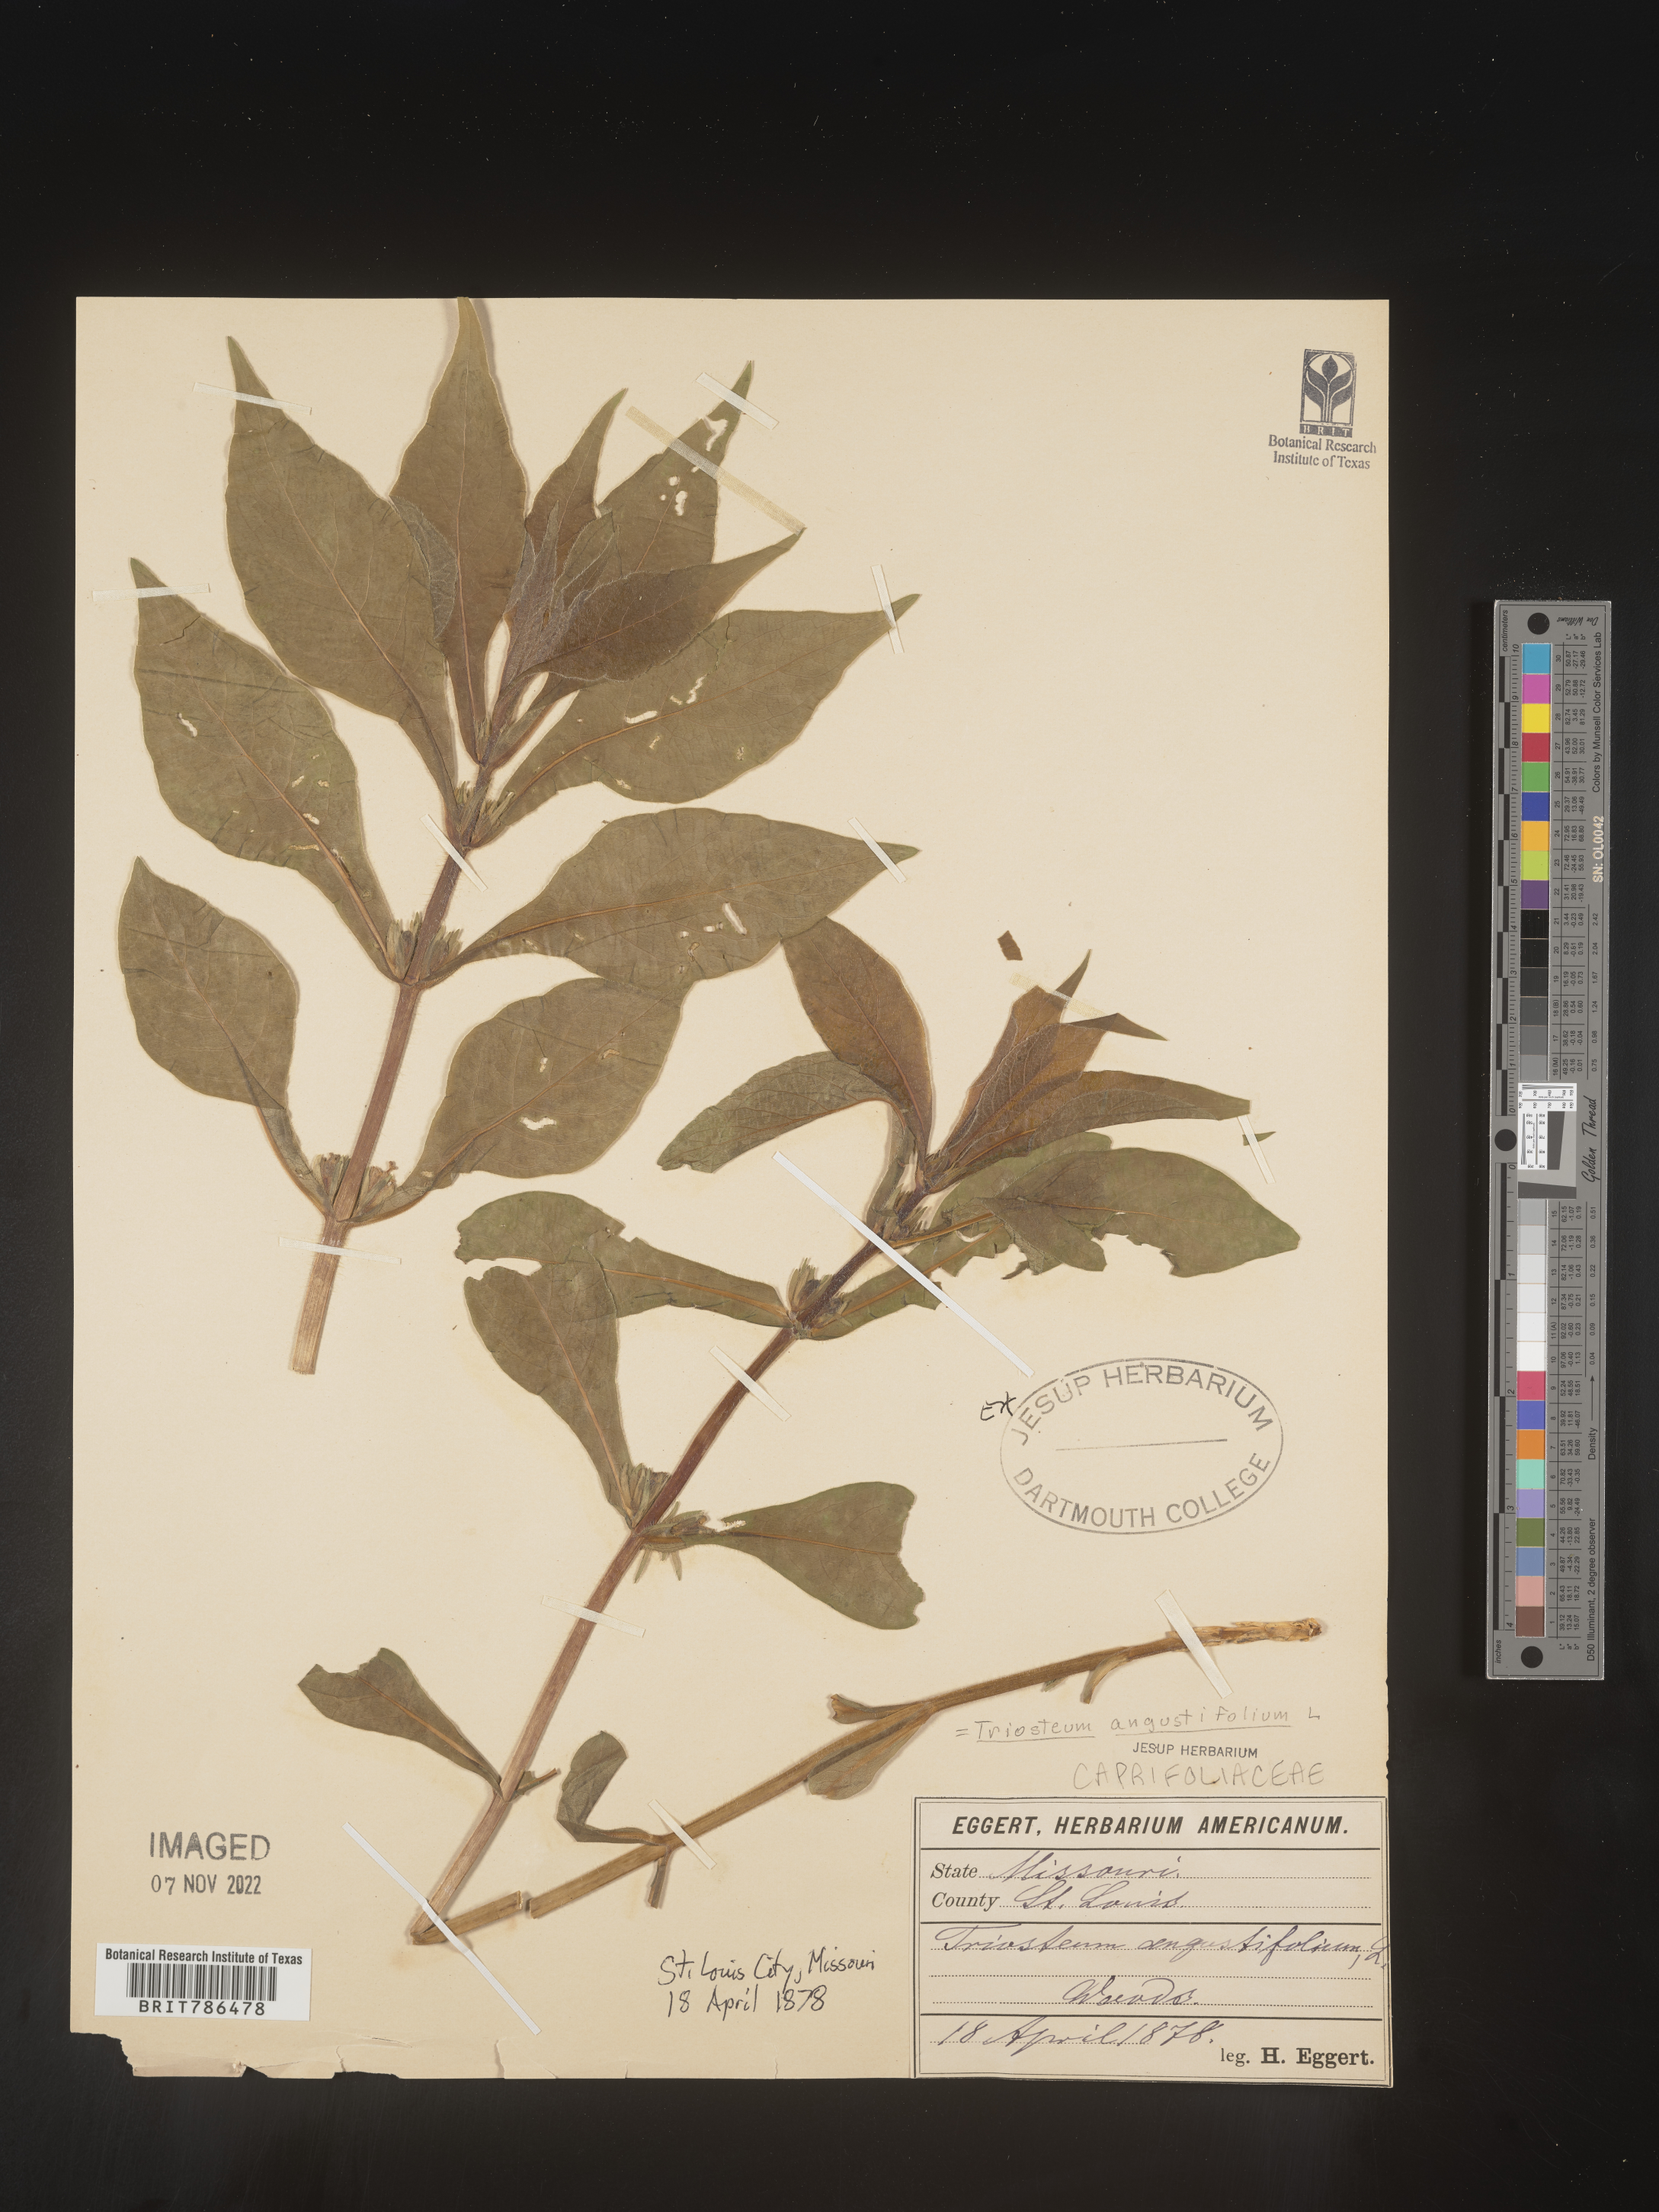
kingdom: Plantae
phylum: Tracheophyta
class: Magnoliopsida
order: Dipsacales
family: Caprifoliaceae
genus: Triosteum
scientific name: Triosteum angustifolium
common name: Narrow-leaved horse-gentian
